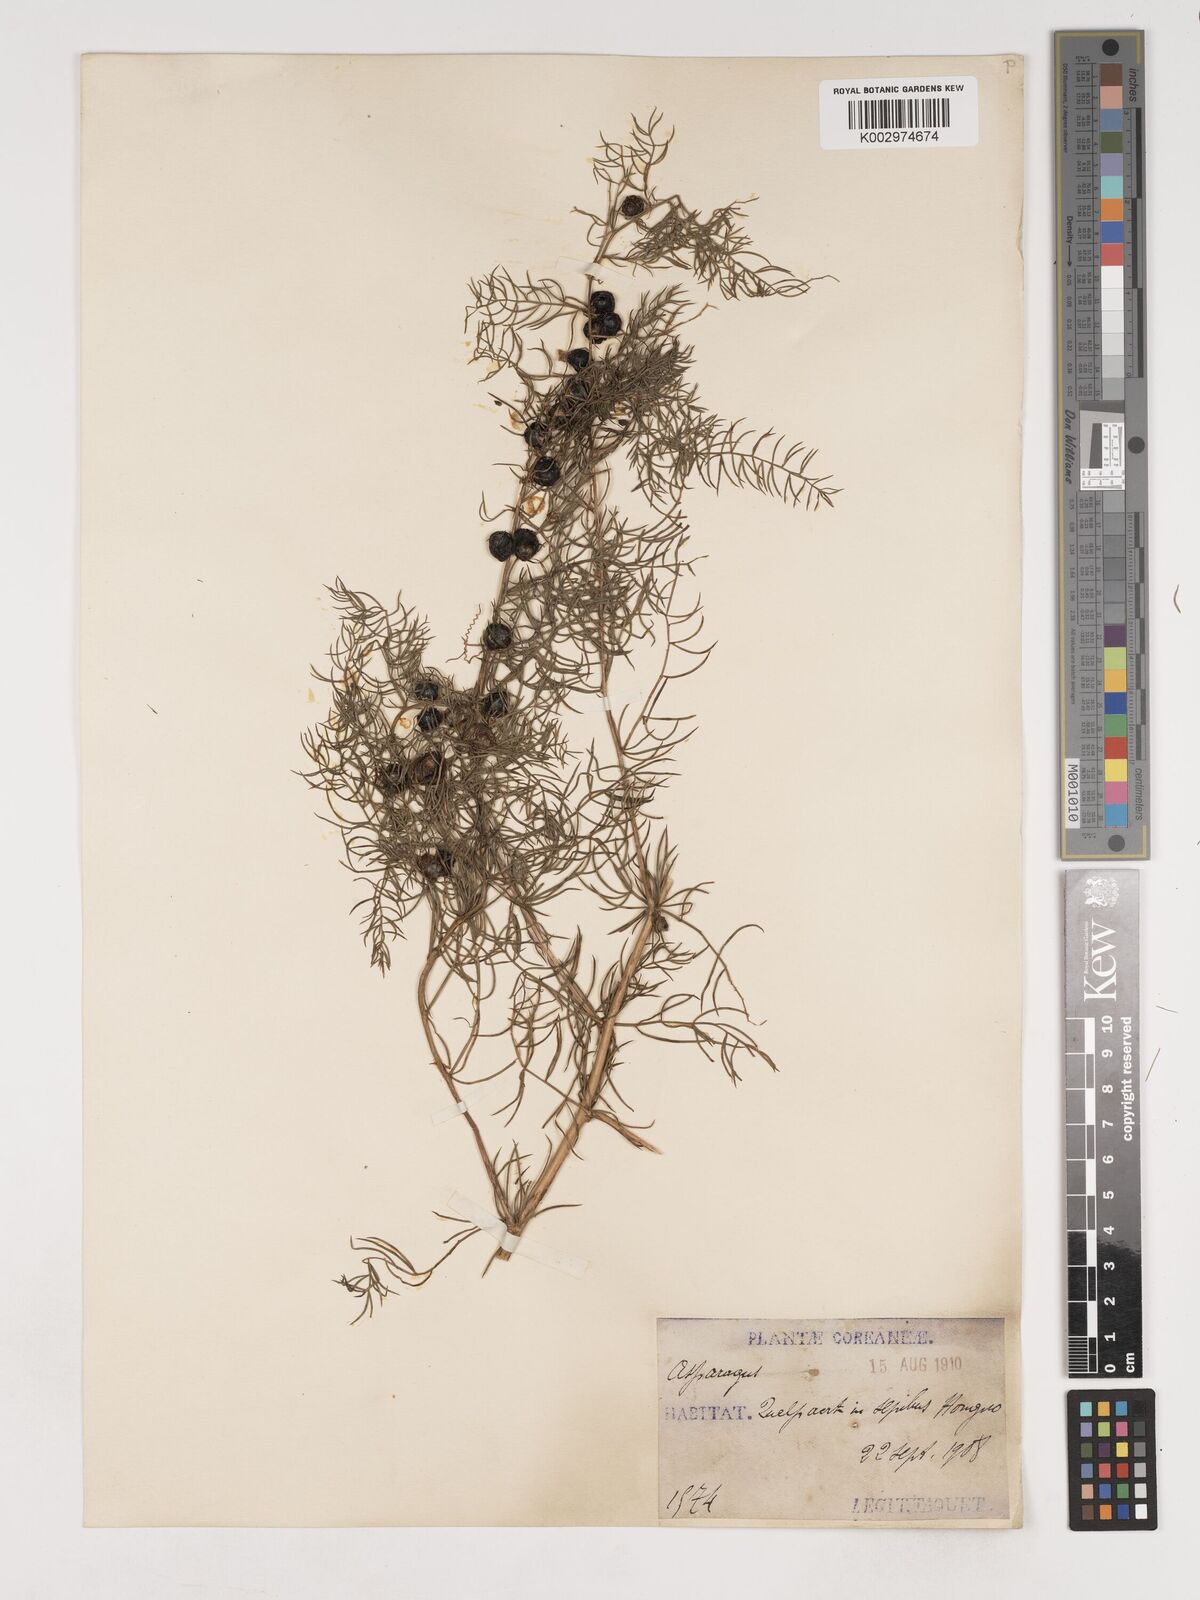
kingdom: Plantae
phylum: Tracheophyta
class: Liliopsida
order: Asparagales
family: Asparagaceae
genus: Asparagus
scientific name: Asparagus schoberioides
